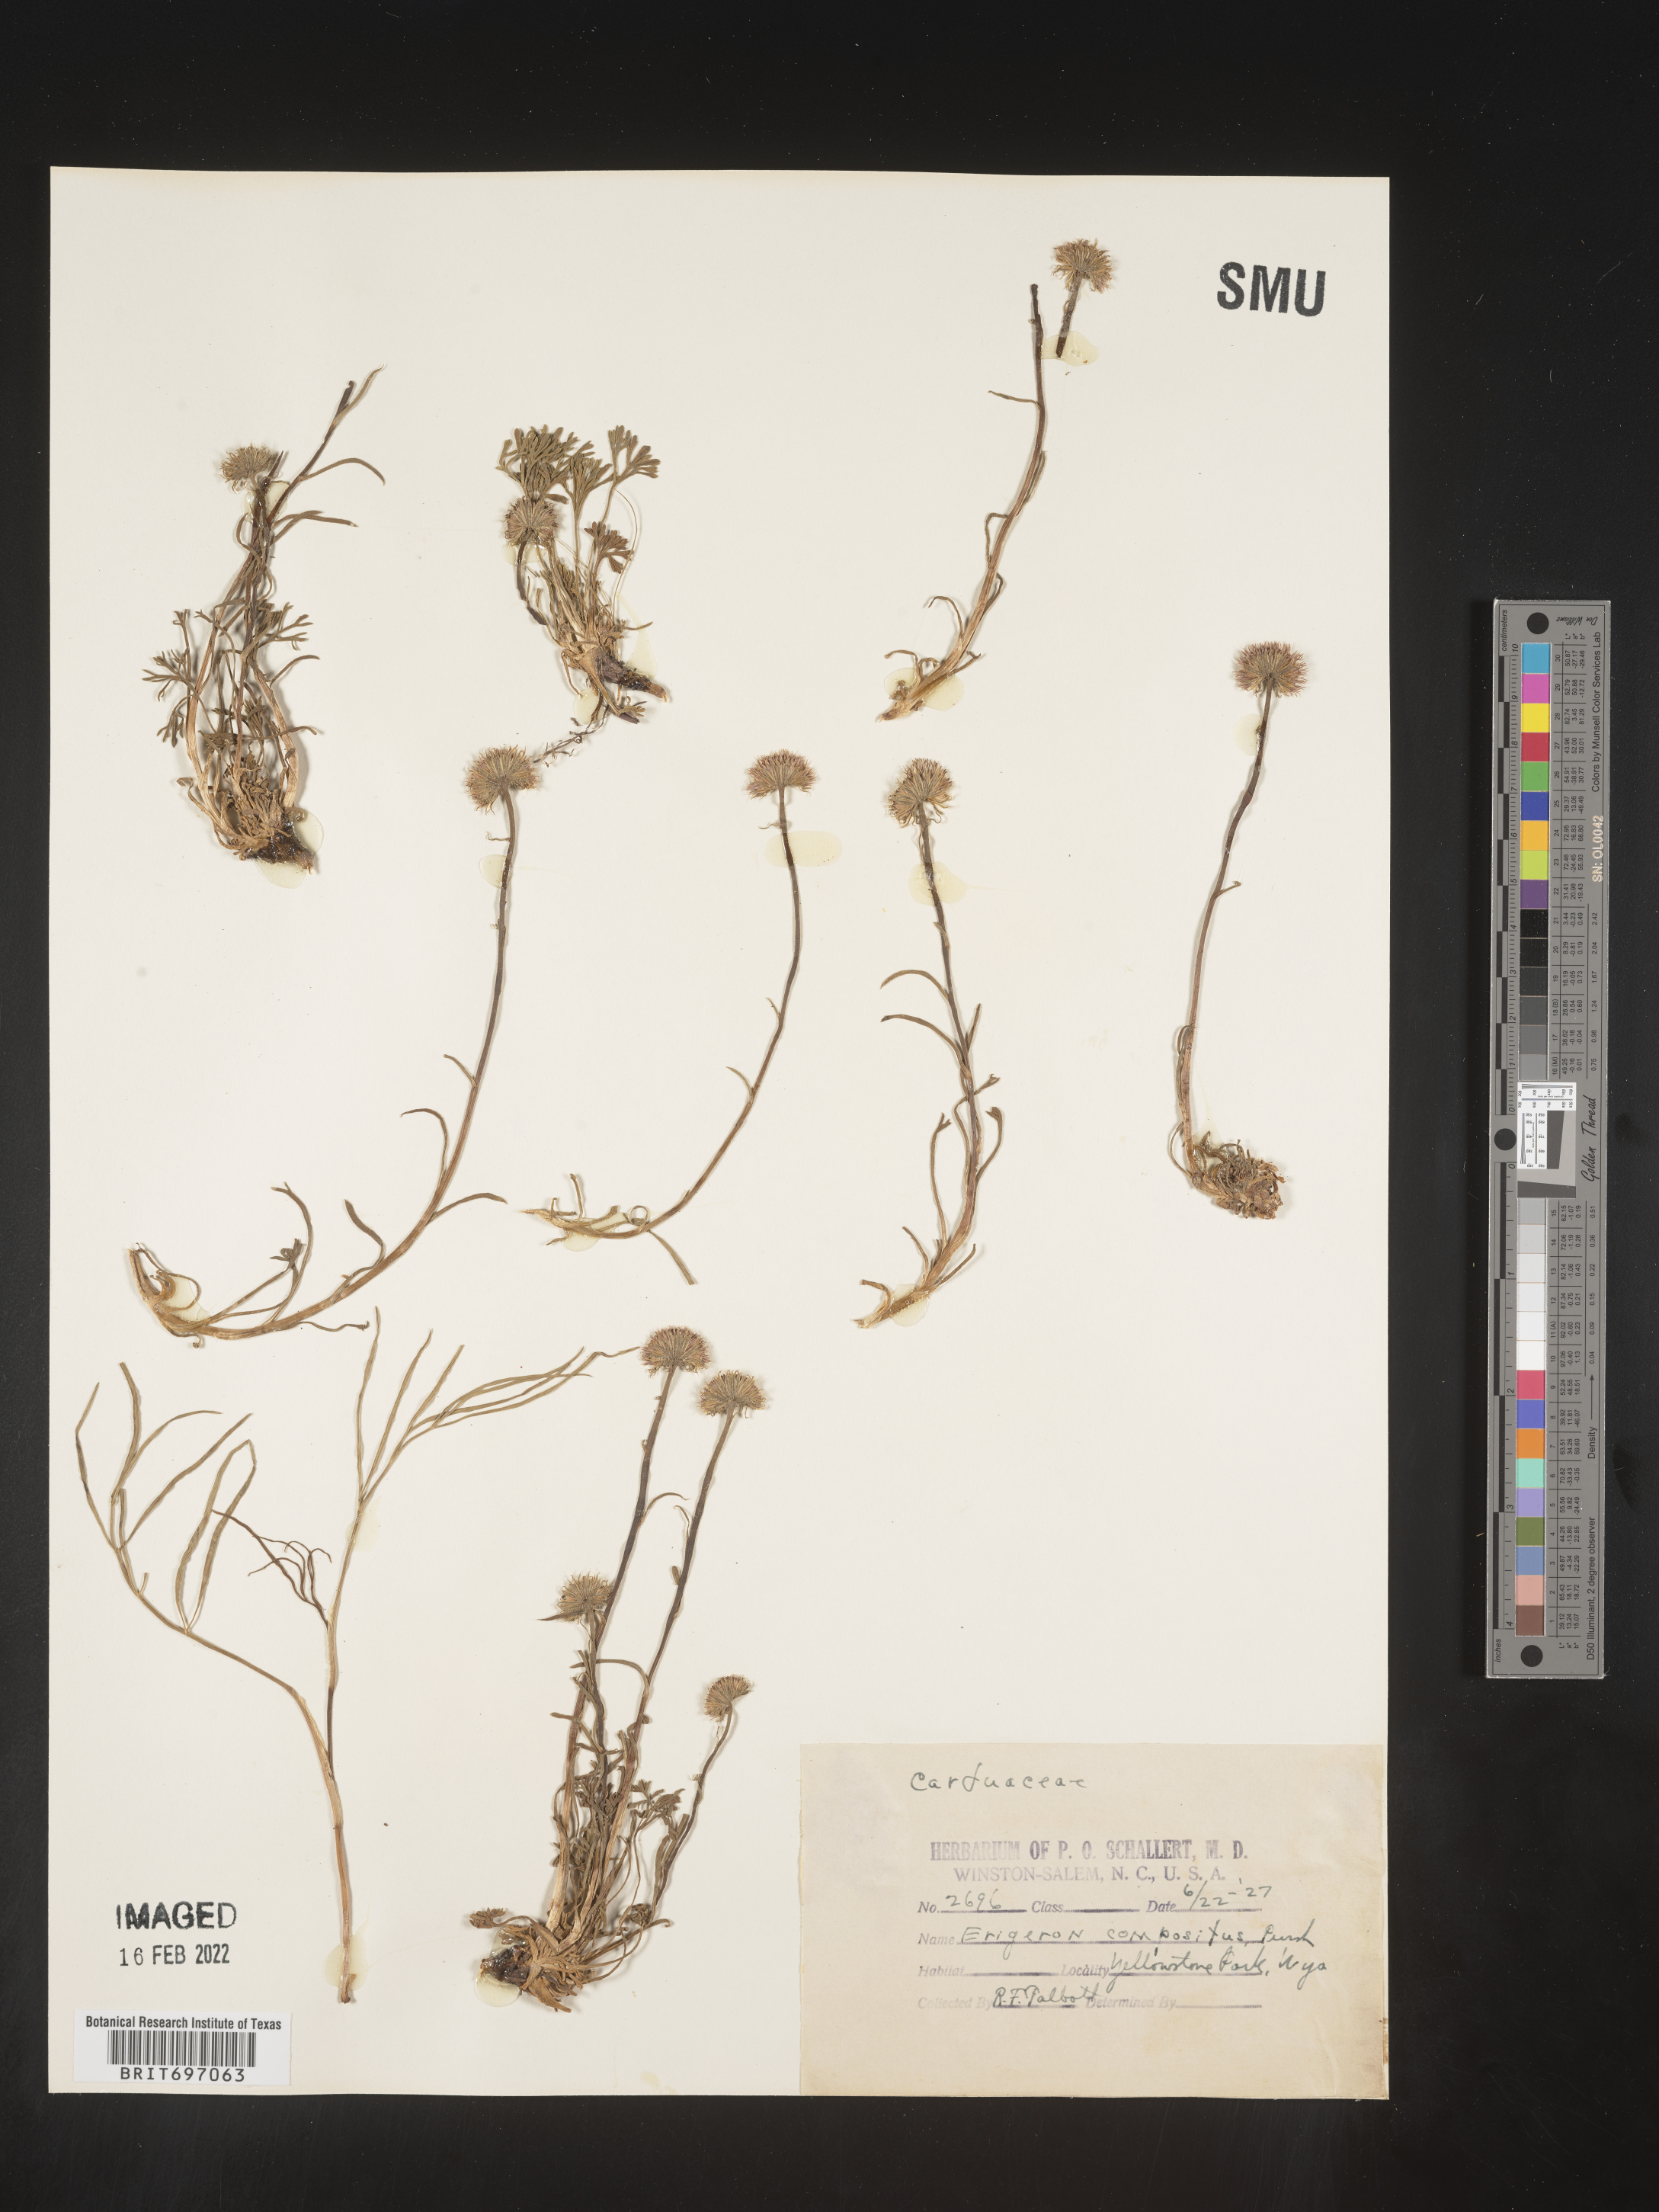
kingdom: Plantae
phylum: Tracheophyta
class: Magnoliopsida
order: Asterales
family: Asteraceae
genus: Erigeron
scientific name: Erigeron compositus
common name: Dwarf mountain fleabane
